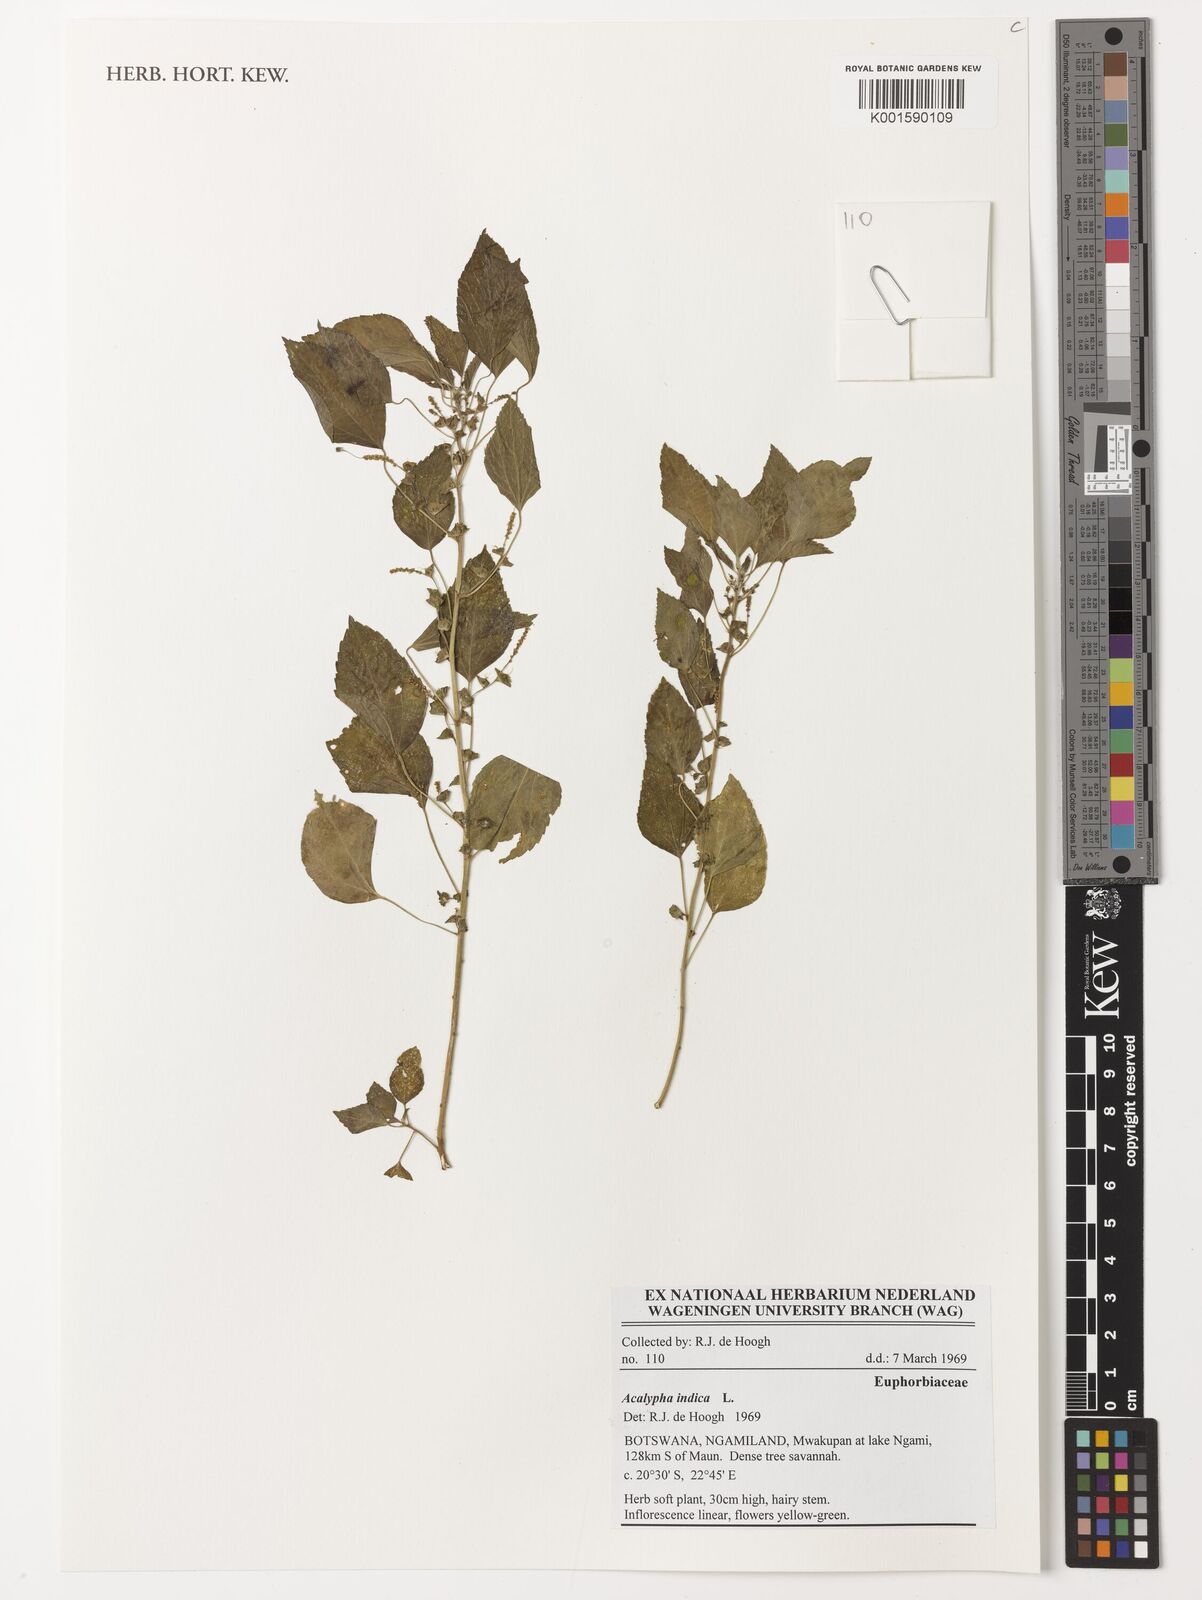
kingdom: Plantae
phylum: Tracheophyta
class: Magnoliopsida
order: Malpighiales
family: Euphorbiaceae
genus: Acalypha
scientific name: Acalypha indica
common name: Indian acalypha
